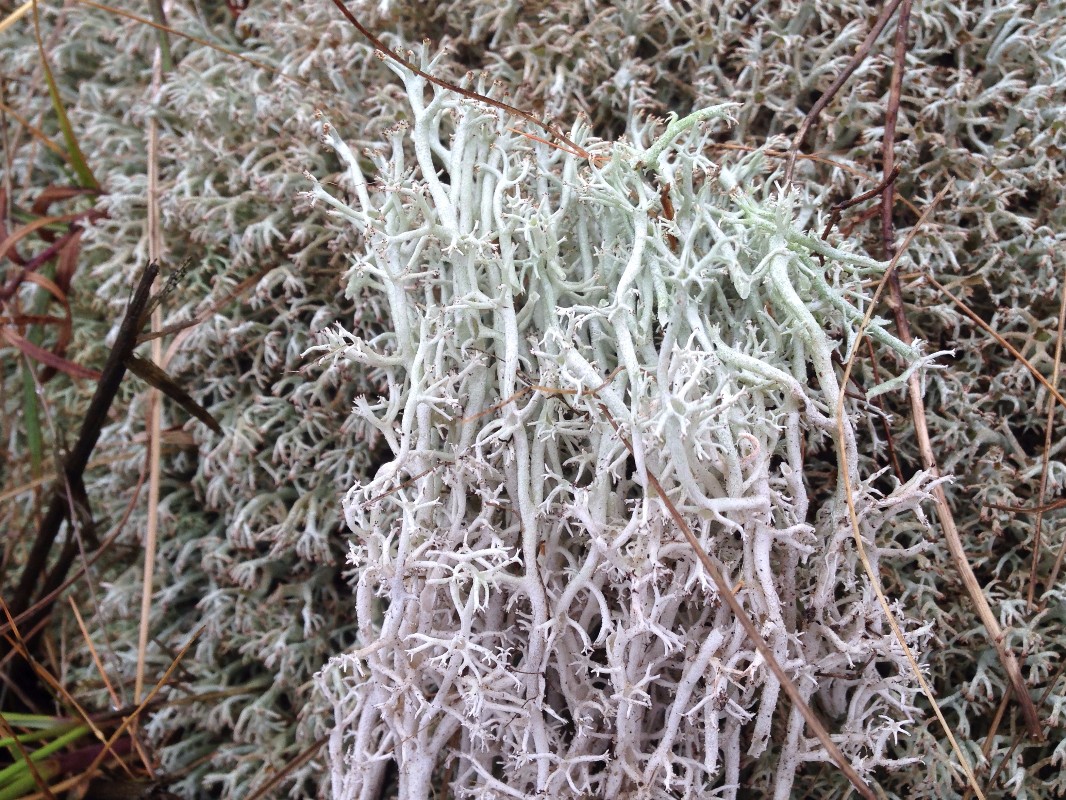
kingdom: Fungi
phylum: Ascomycota
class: Lecanoromycetes
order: Lecanorales
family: Cladoniaceae
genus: Cladonia
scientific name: Cladonia rangiferina
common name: askegrå rensdyrlav
